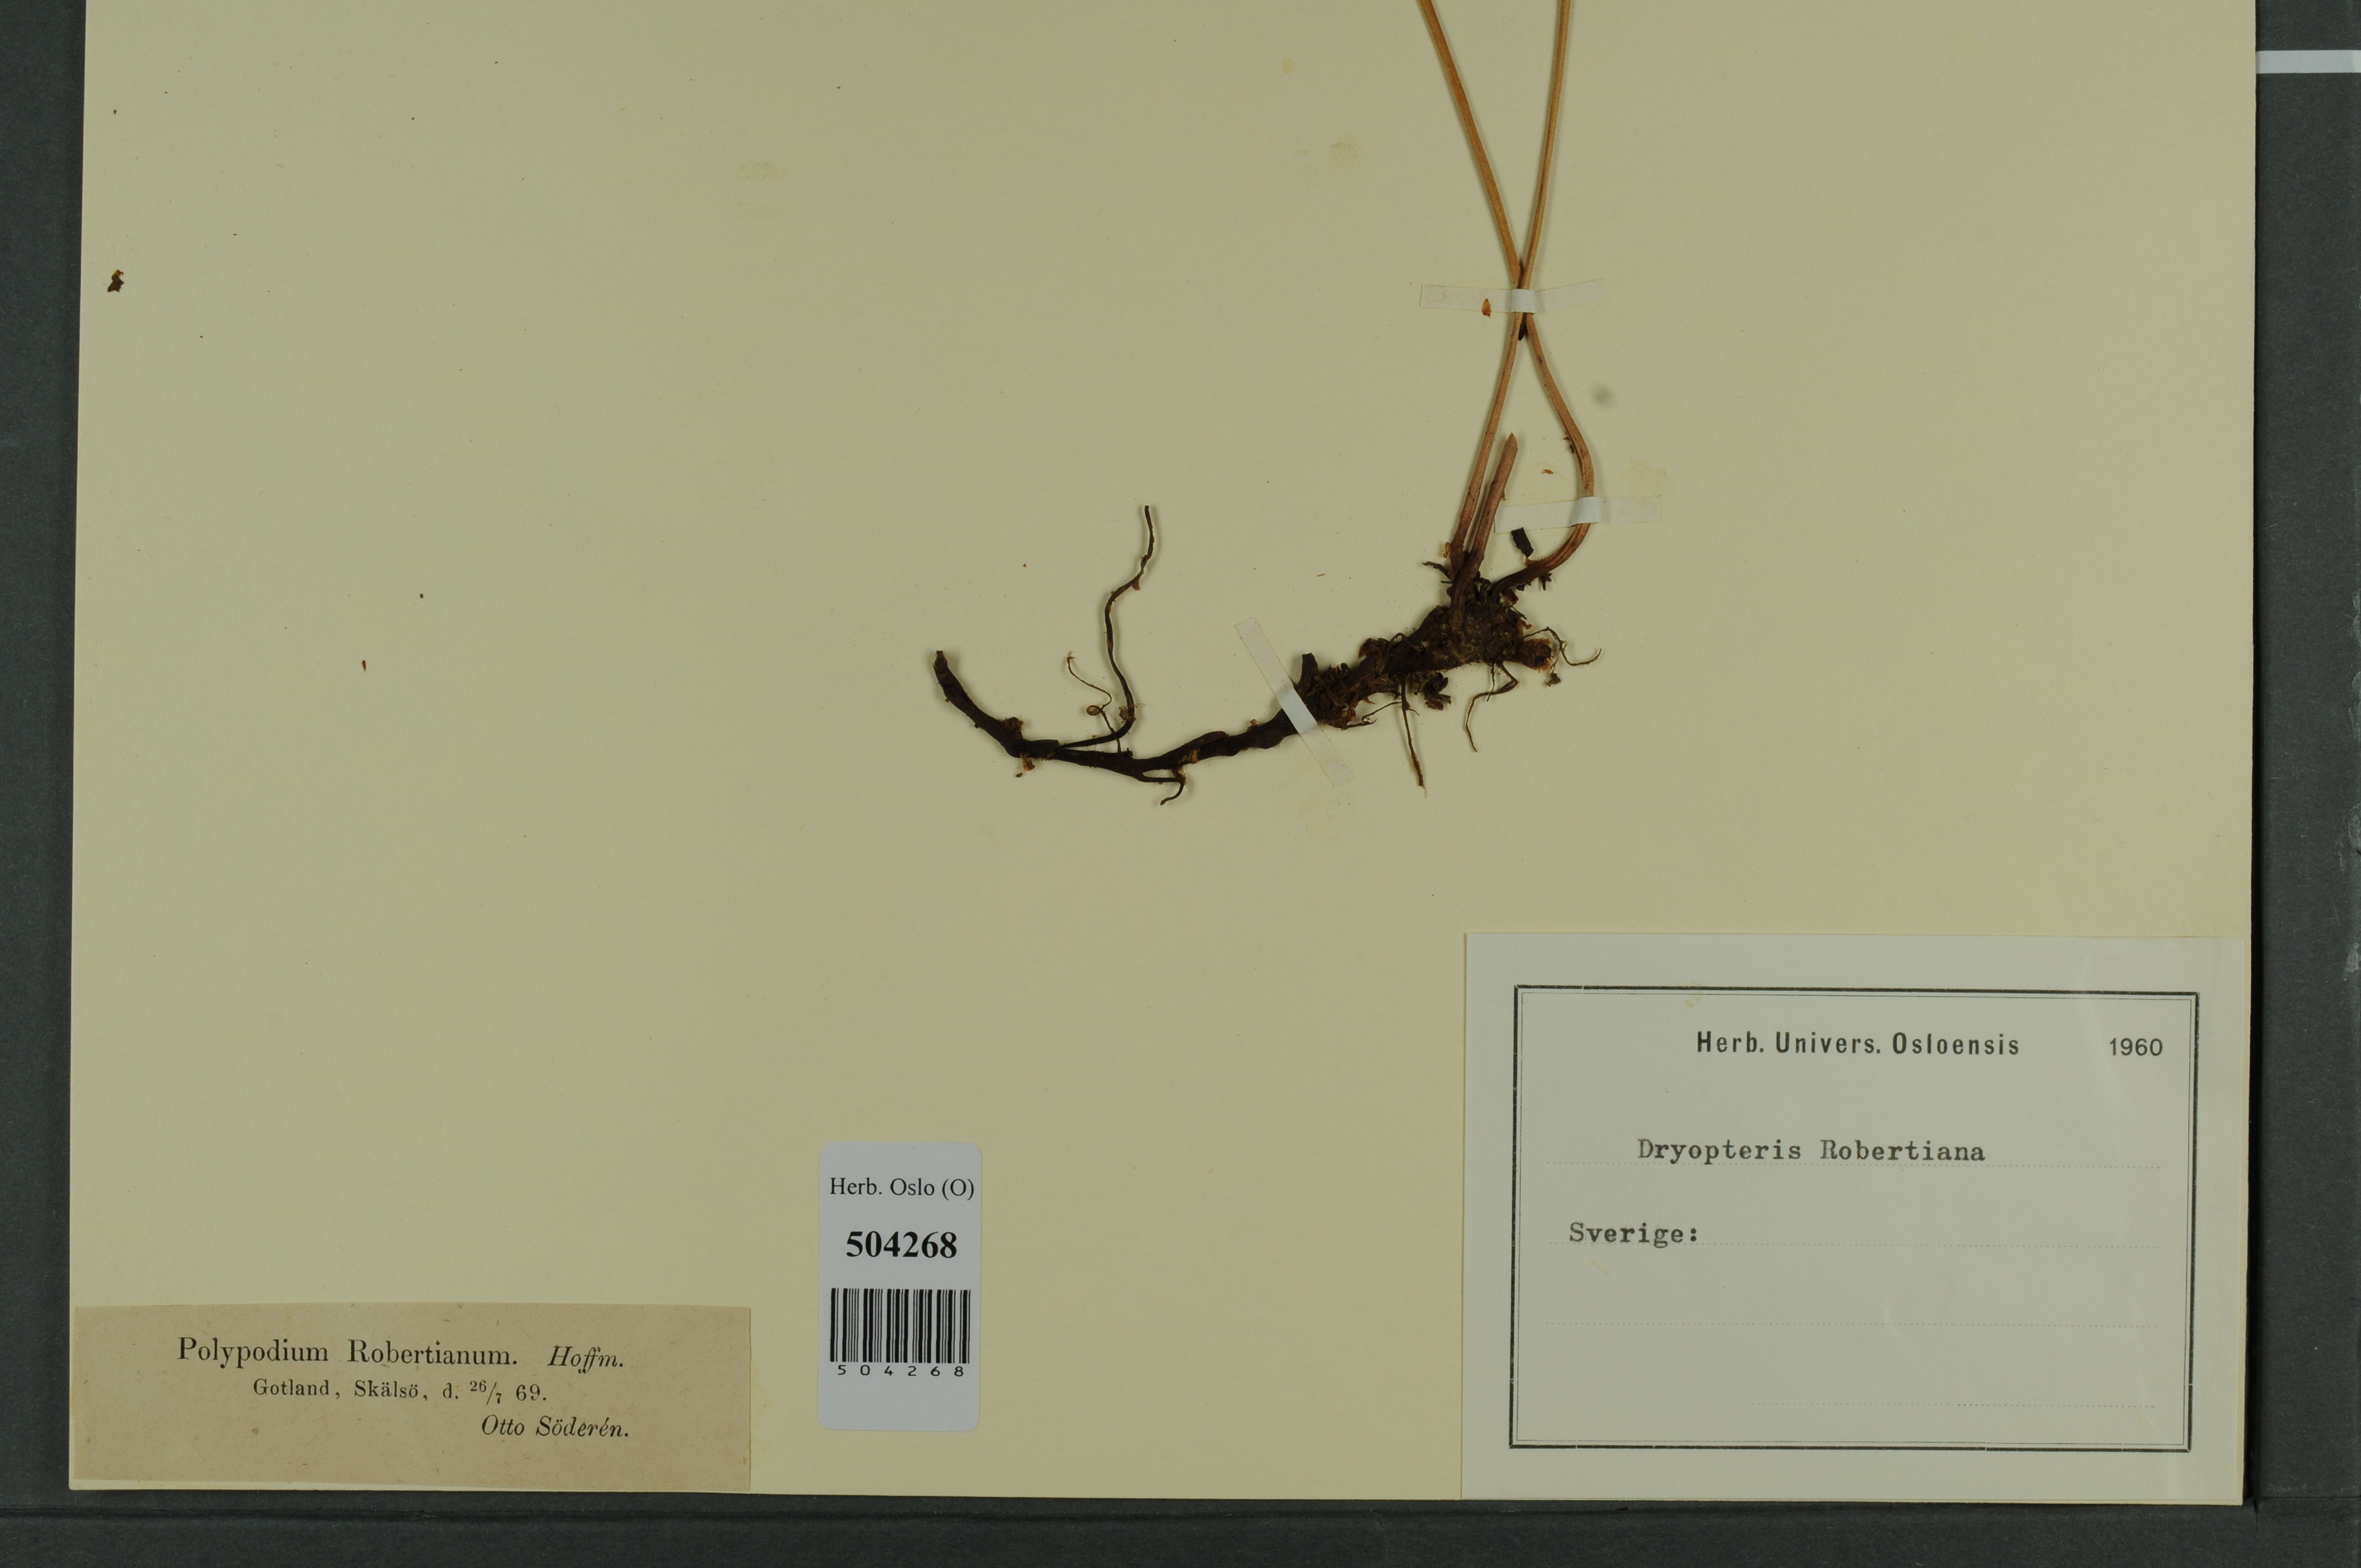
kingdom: Plantae
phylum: Tracheophyta
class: Polypodiopsida
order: Polypodiales
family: Cystopteridaceae
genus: Gymnocarpium
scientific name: Gymnocarpium robertianum
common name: Limestone fern
